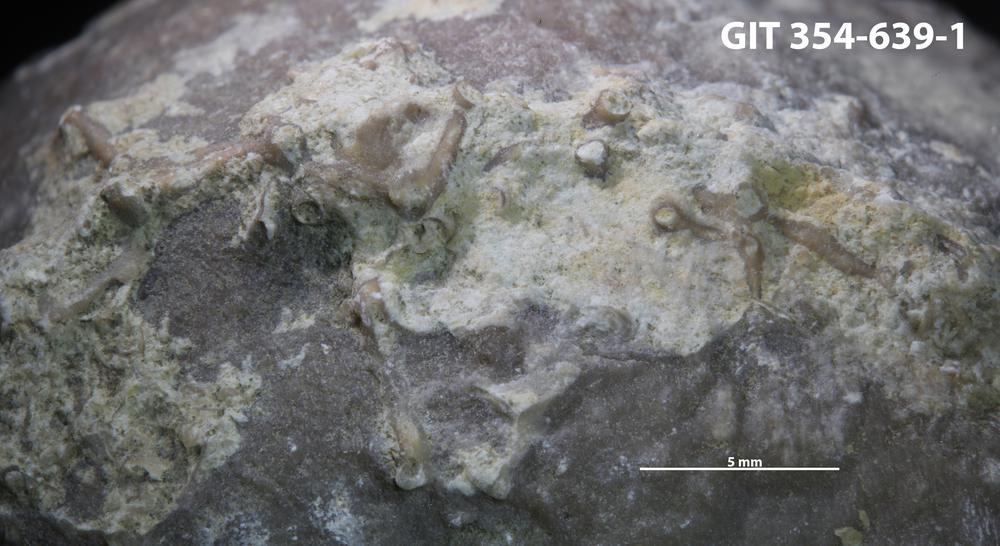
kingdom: Animalia
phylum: Cnidaria
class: Anthozoa
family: Auloporidae
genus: Aulopora
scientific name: Aulopora
